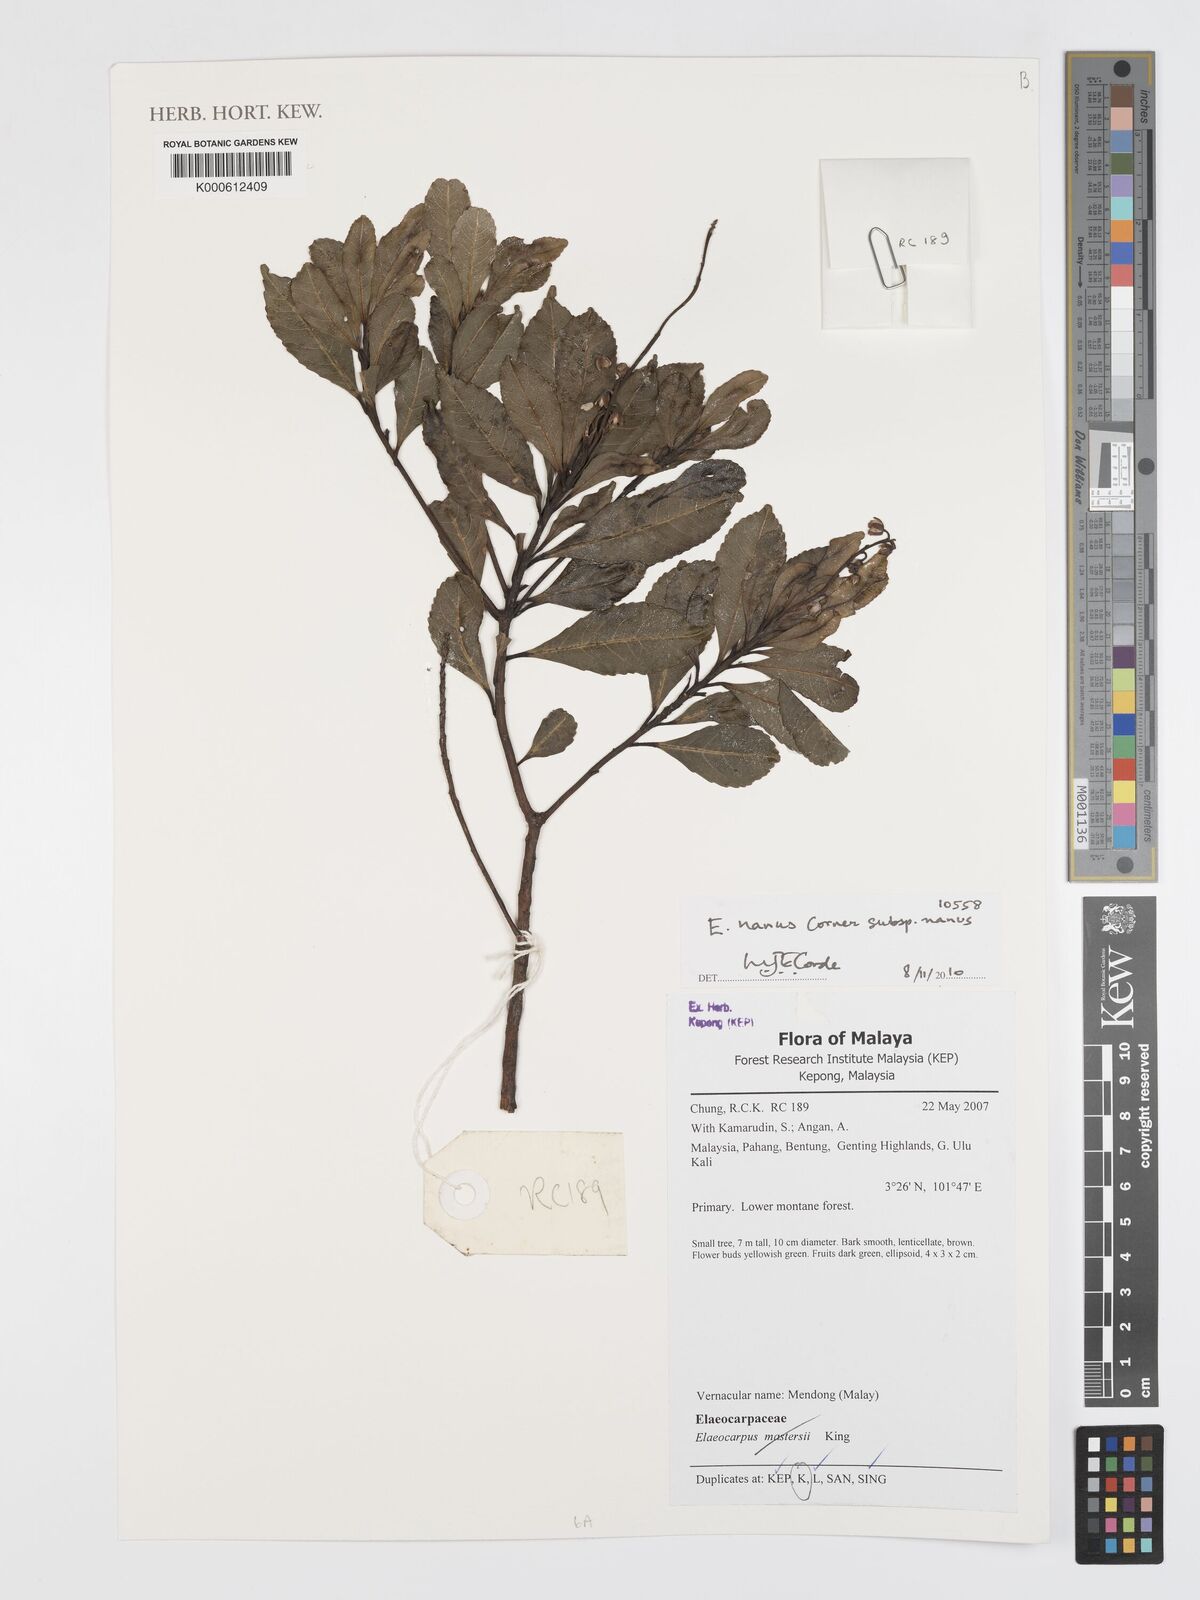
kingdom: Plantae
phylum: Tracheophyta
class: Magnoliopsida
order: Oxalidales
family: Elaeocarpaceae
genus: Elaeocarpus
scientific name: Elaeocarpus nanus
